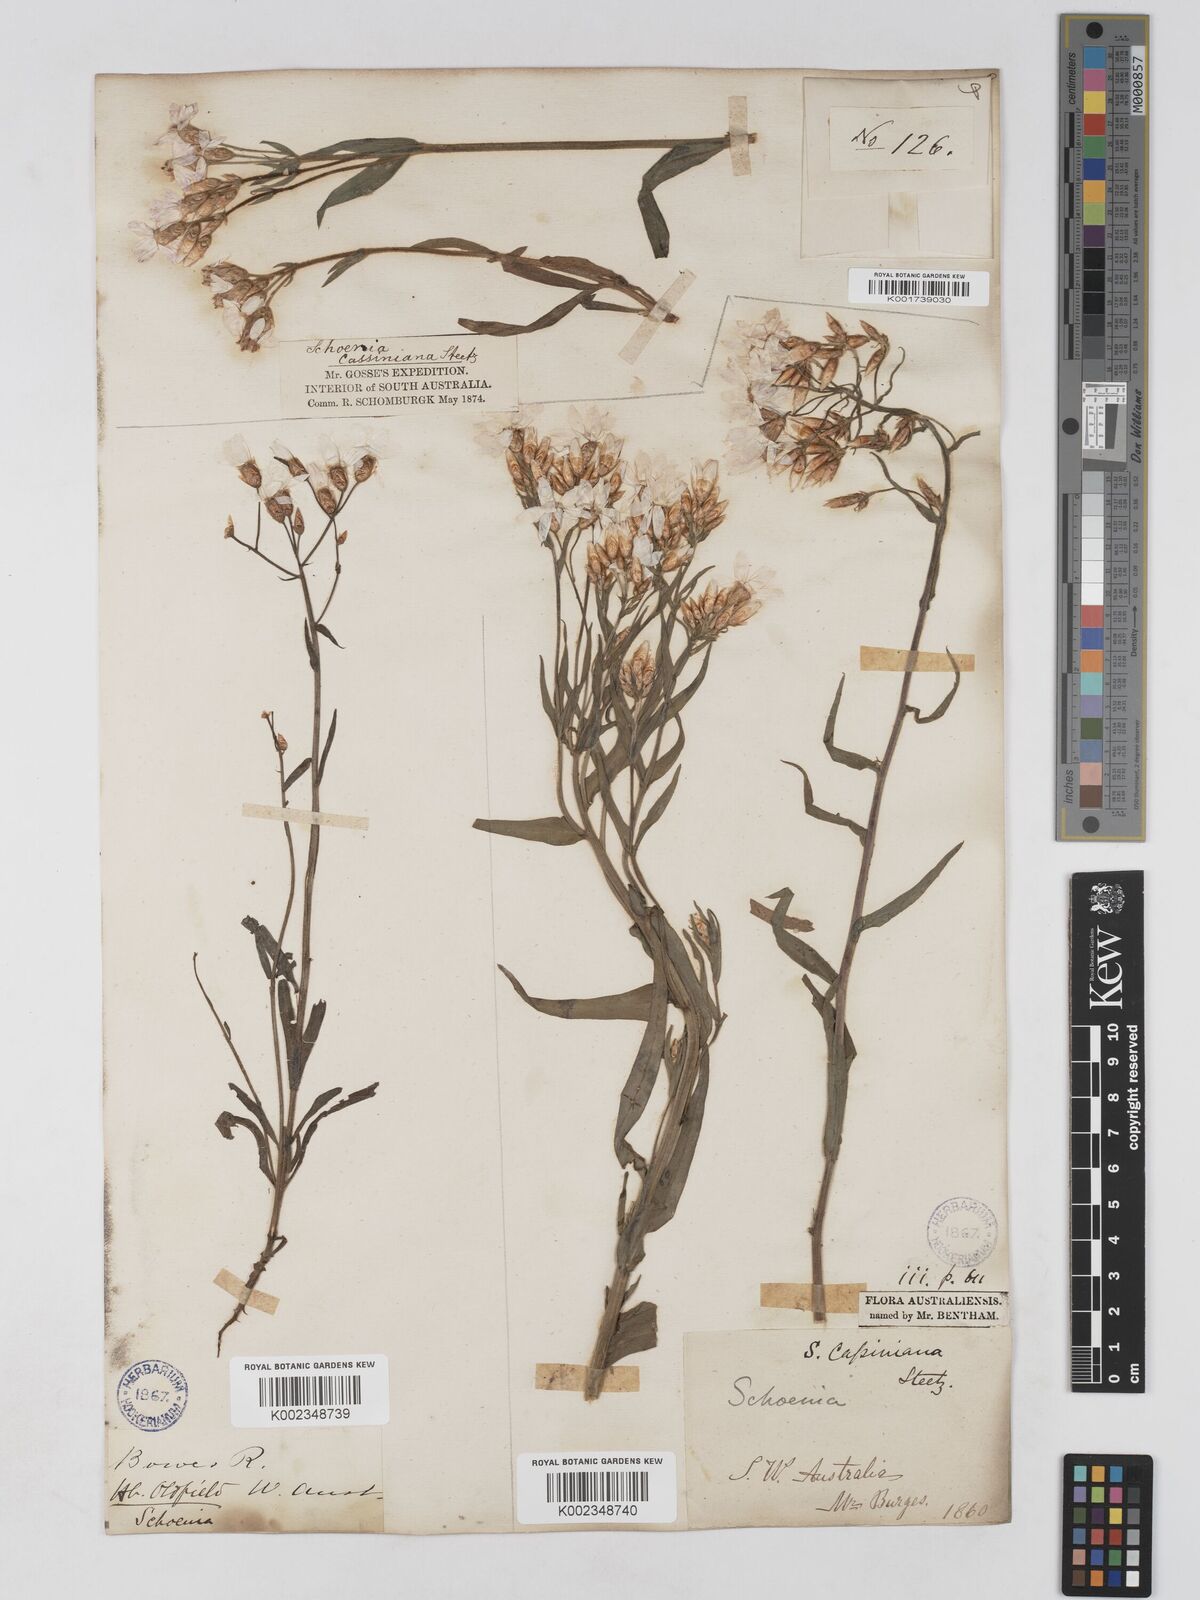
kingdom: Plantae
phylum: Tracheophyta
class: Magnoliopsida
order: Asterales
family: Asteraceae
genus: Schoenia
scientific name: Schoenia cassiniana
